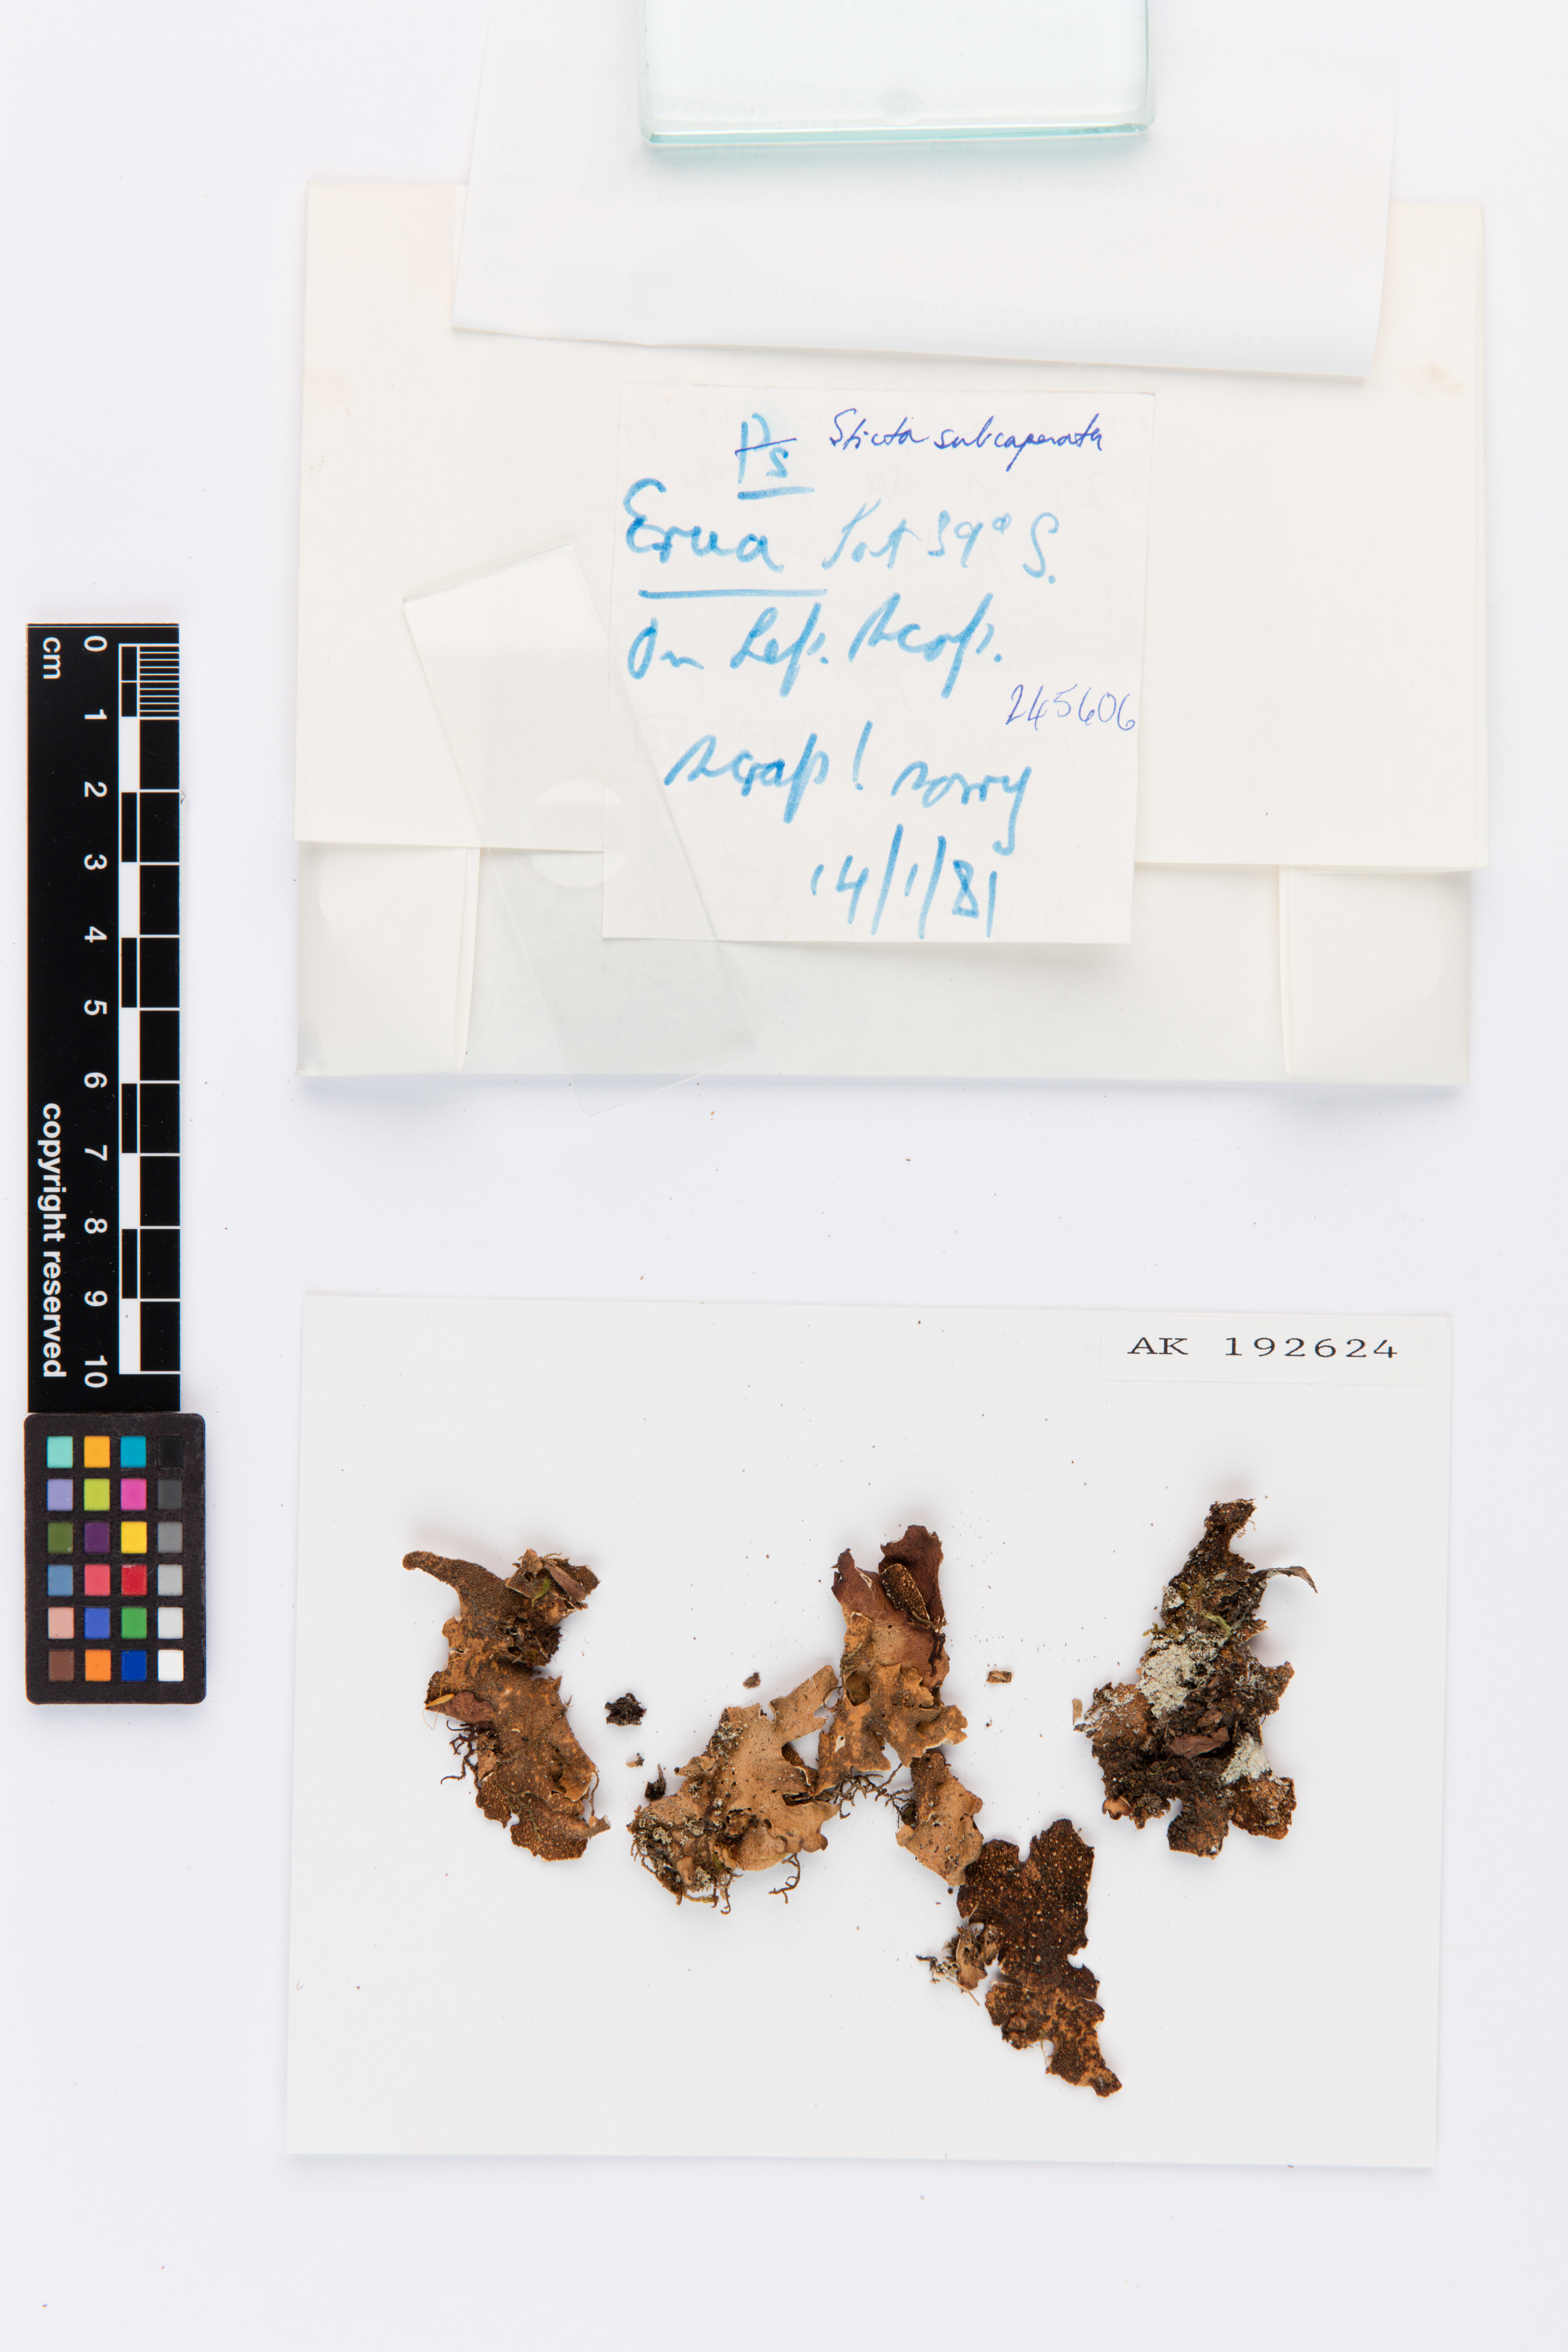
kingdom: Fungi
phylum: Ascomycota
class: Lecanoromycetes
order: Peltigerales
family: Lobariaceae
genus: Sticta
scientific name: Sticta subcaperata
